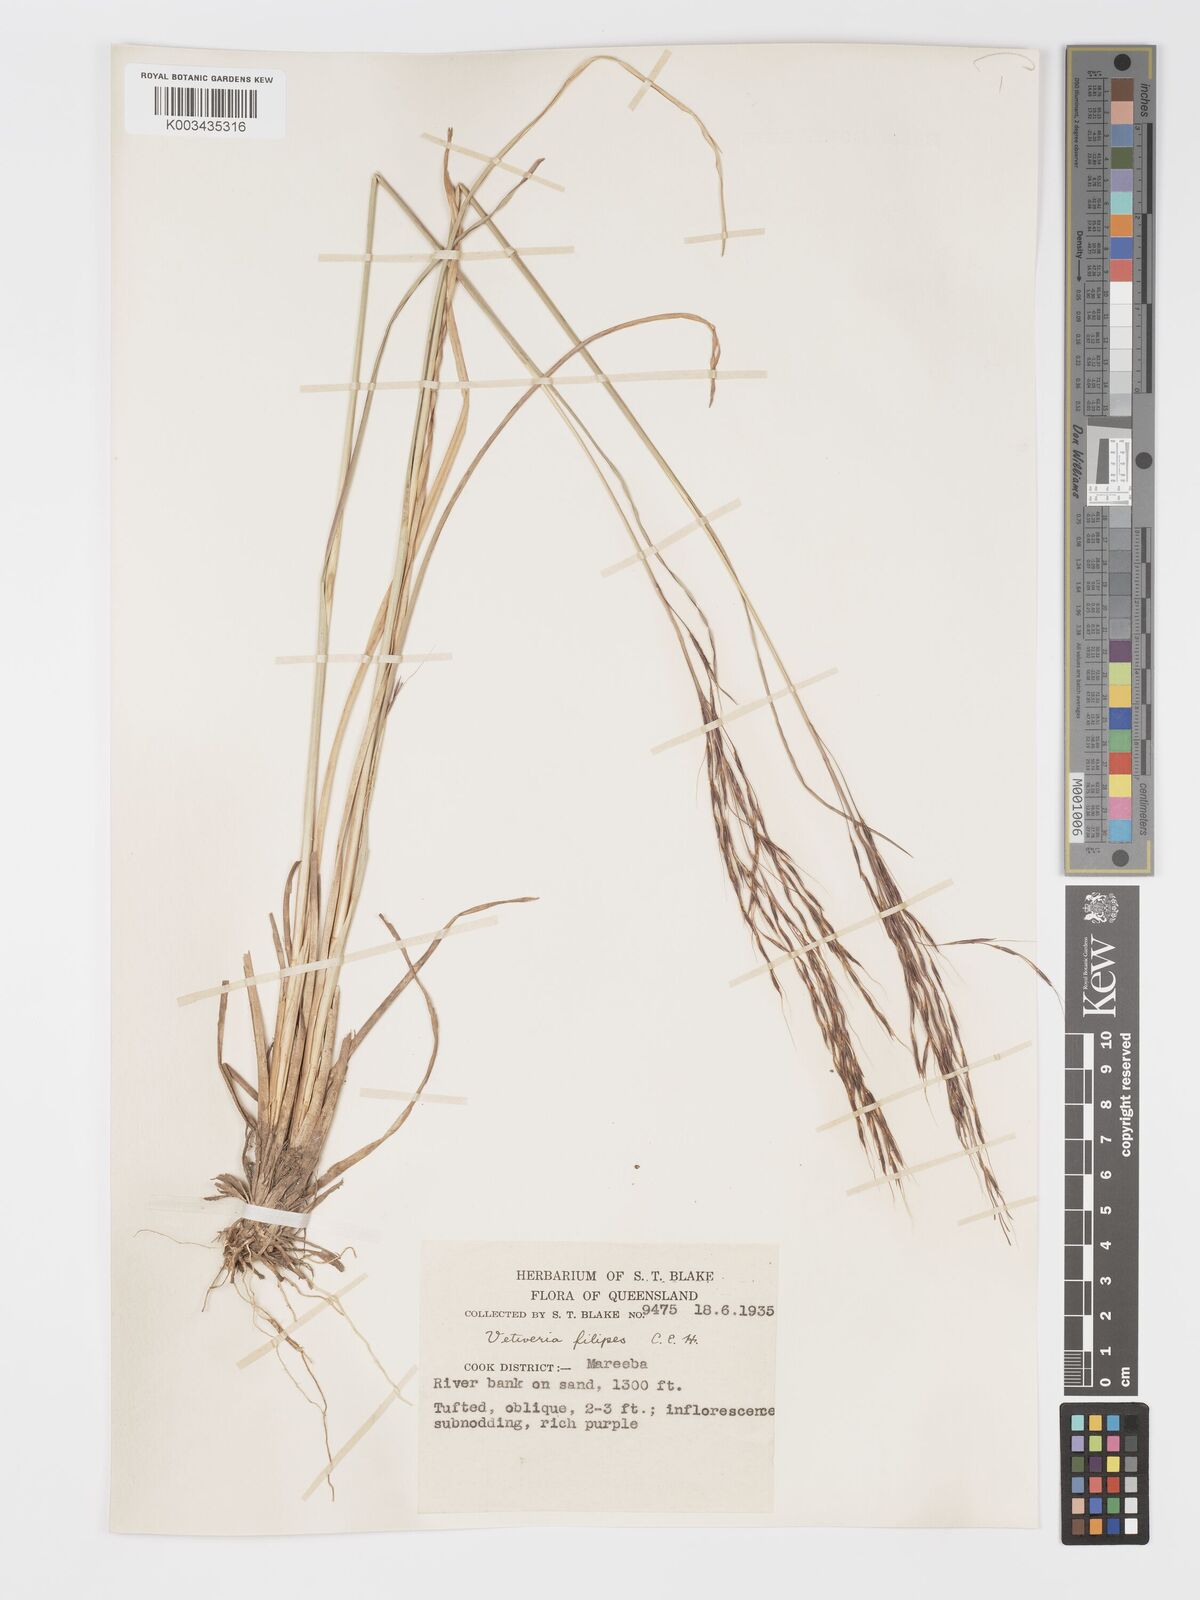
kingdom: Plantae
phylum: Tracheophyta
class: Liliopsida
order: Poales
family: Poaceae
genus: Chrysopogon
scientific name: Chrysopogon filipes
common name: Australian vetiver
